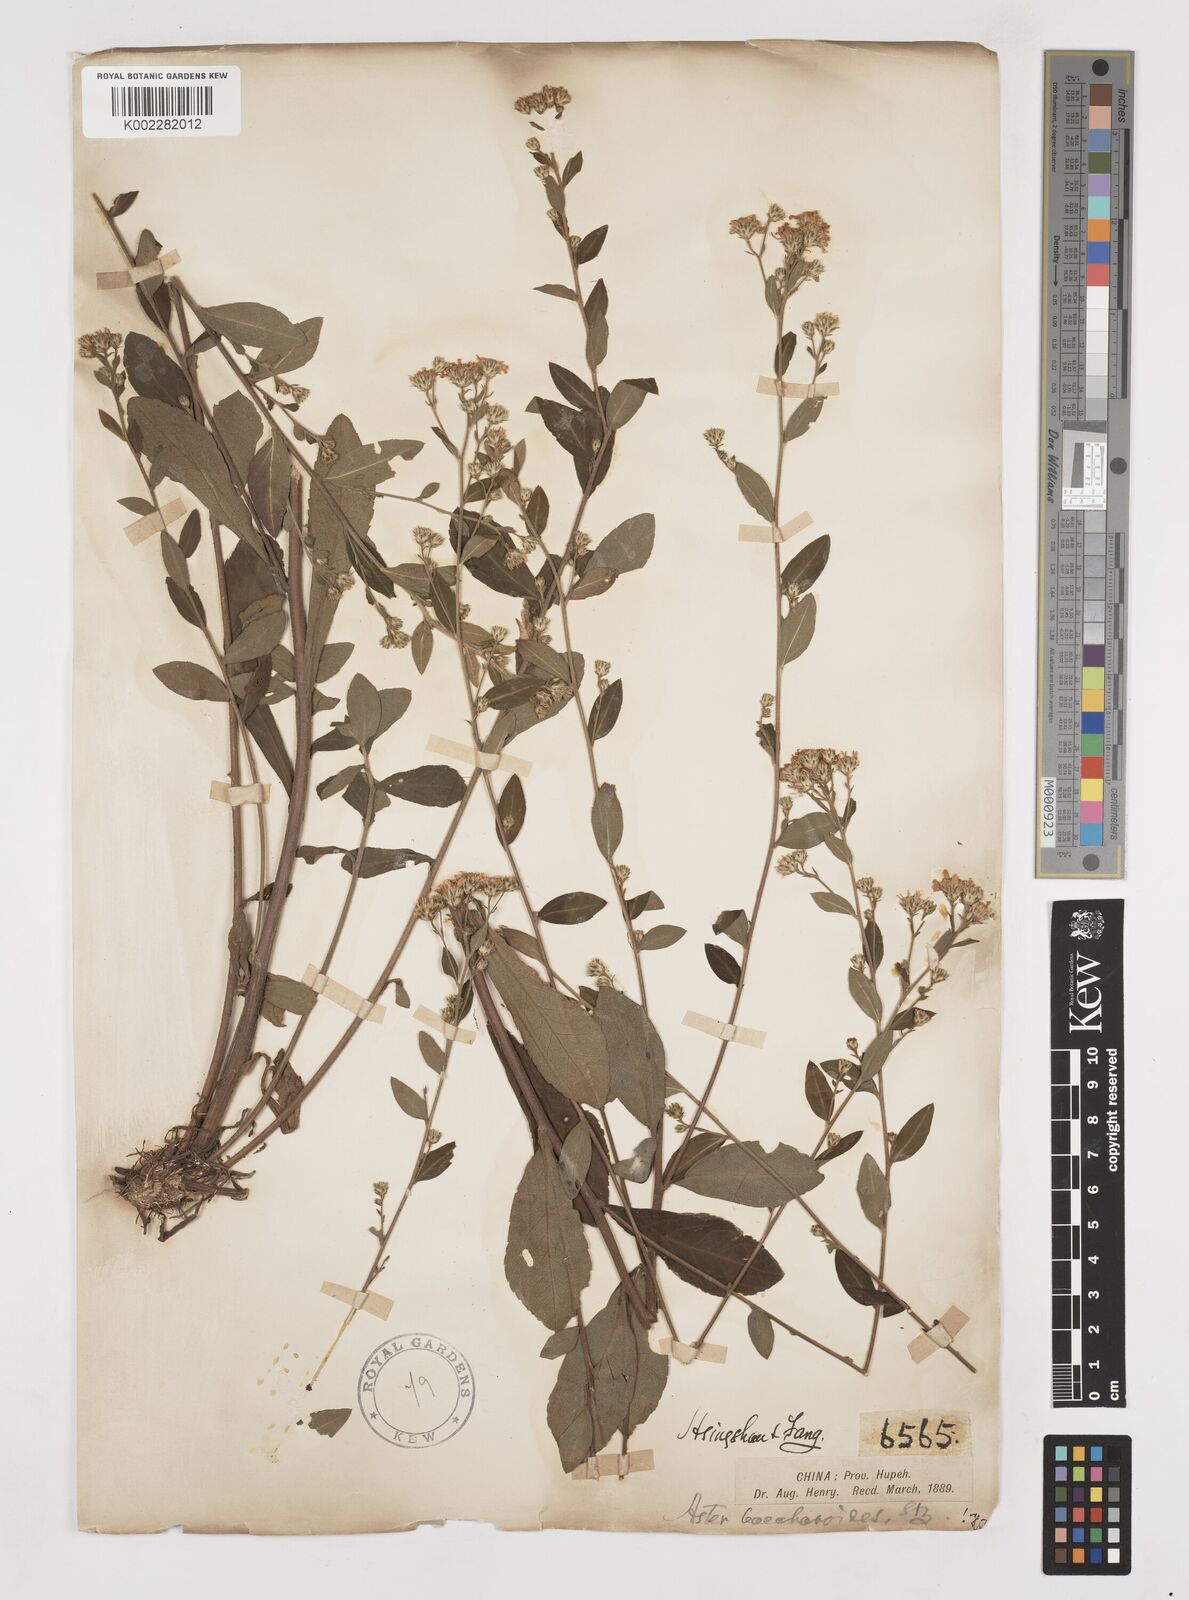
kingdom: Plantae
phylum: Tracheophyta
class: Magnoliopsida
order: Asterales
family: Asteraceae
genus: Aster
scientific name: Aster baccharoides
